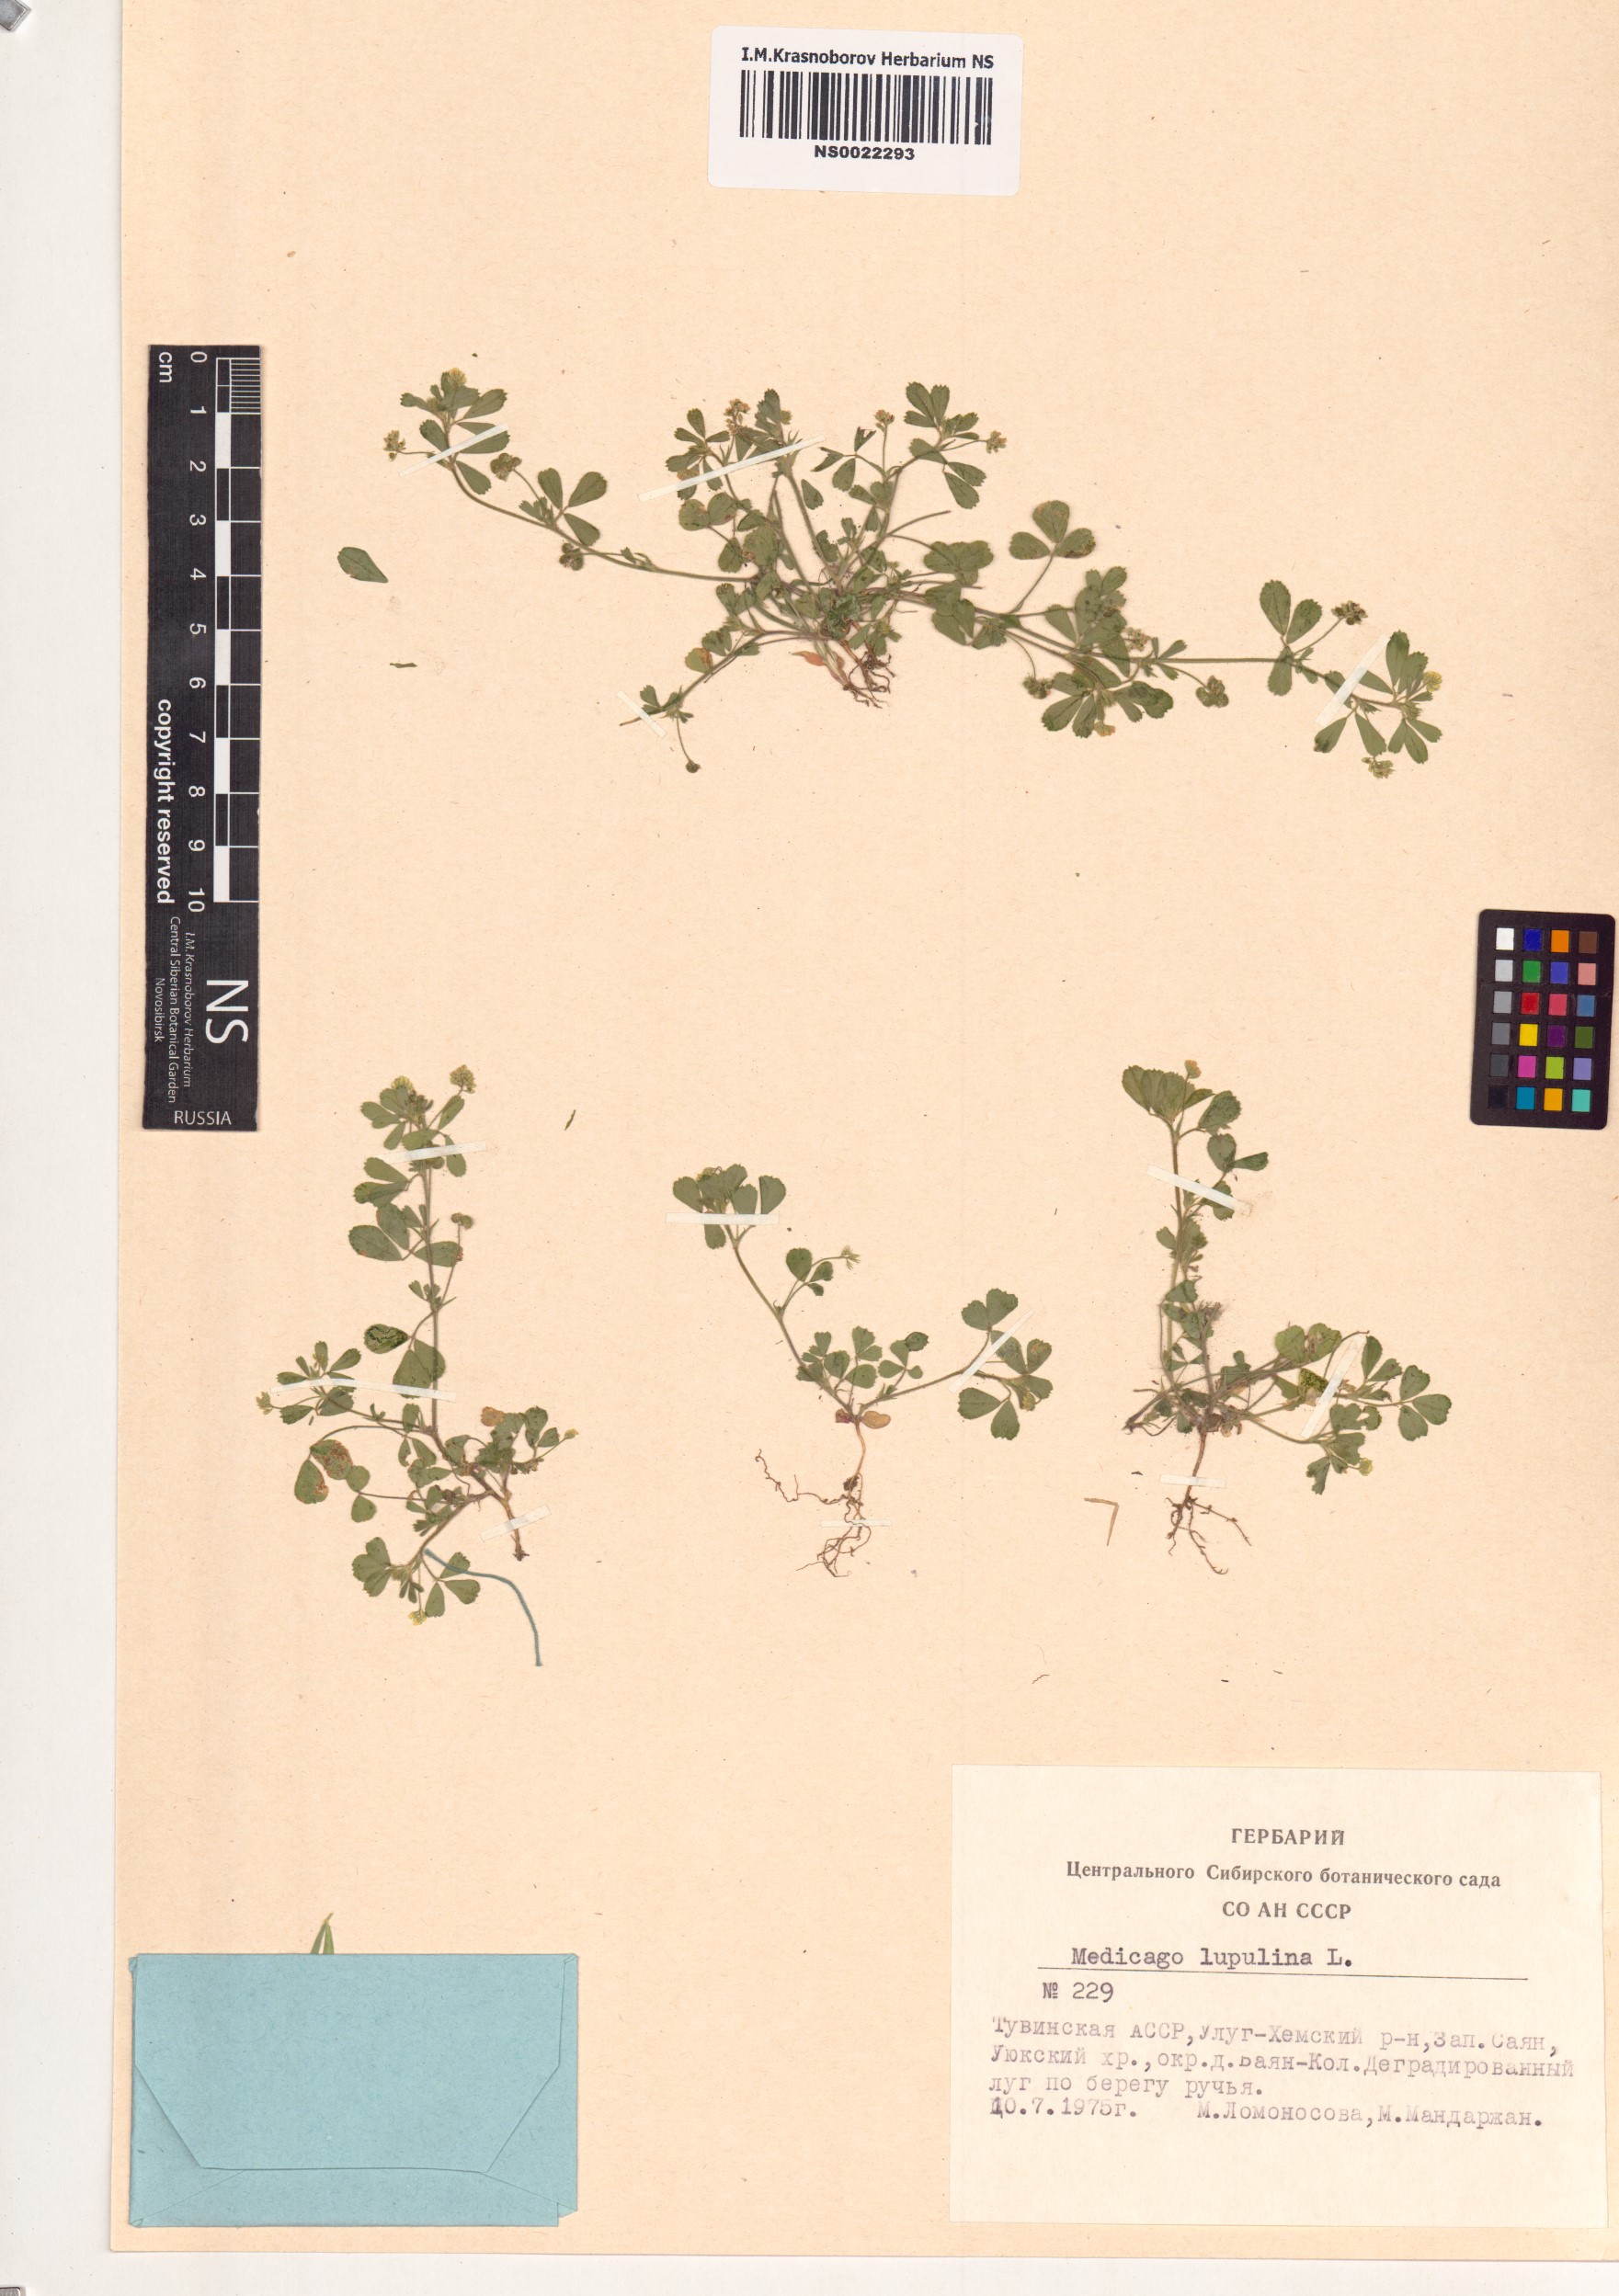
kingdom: Plantae
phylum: Tracheophyta
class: Magnoliopsida
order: Fabales
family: Fabaceae
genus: Medicago
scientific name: Medicago lupulina
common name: Black medick
